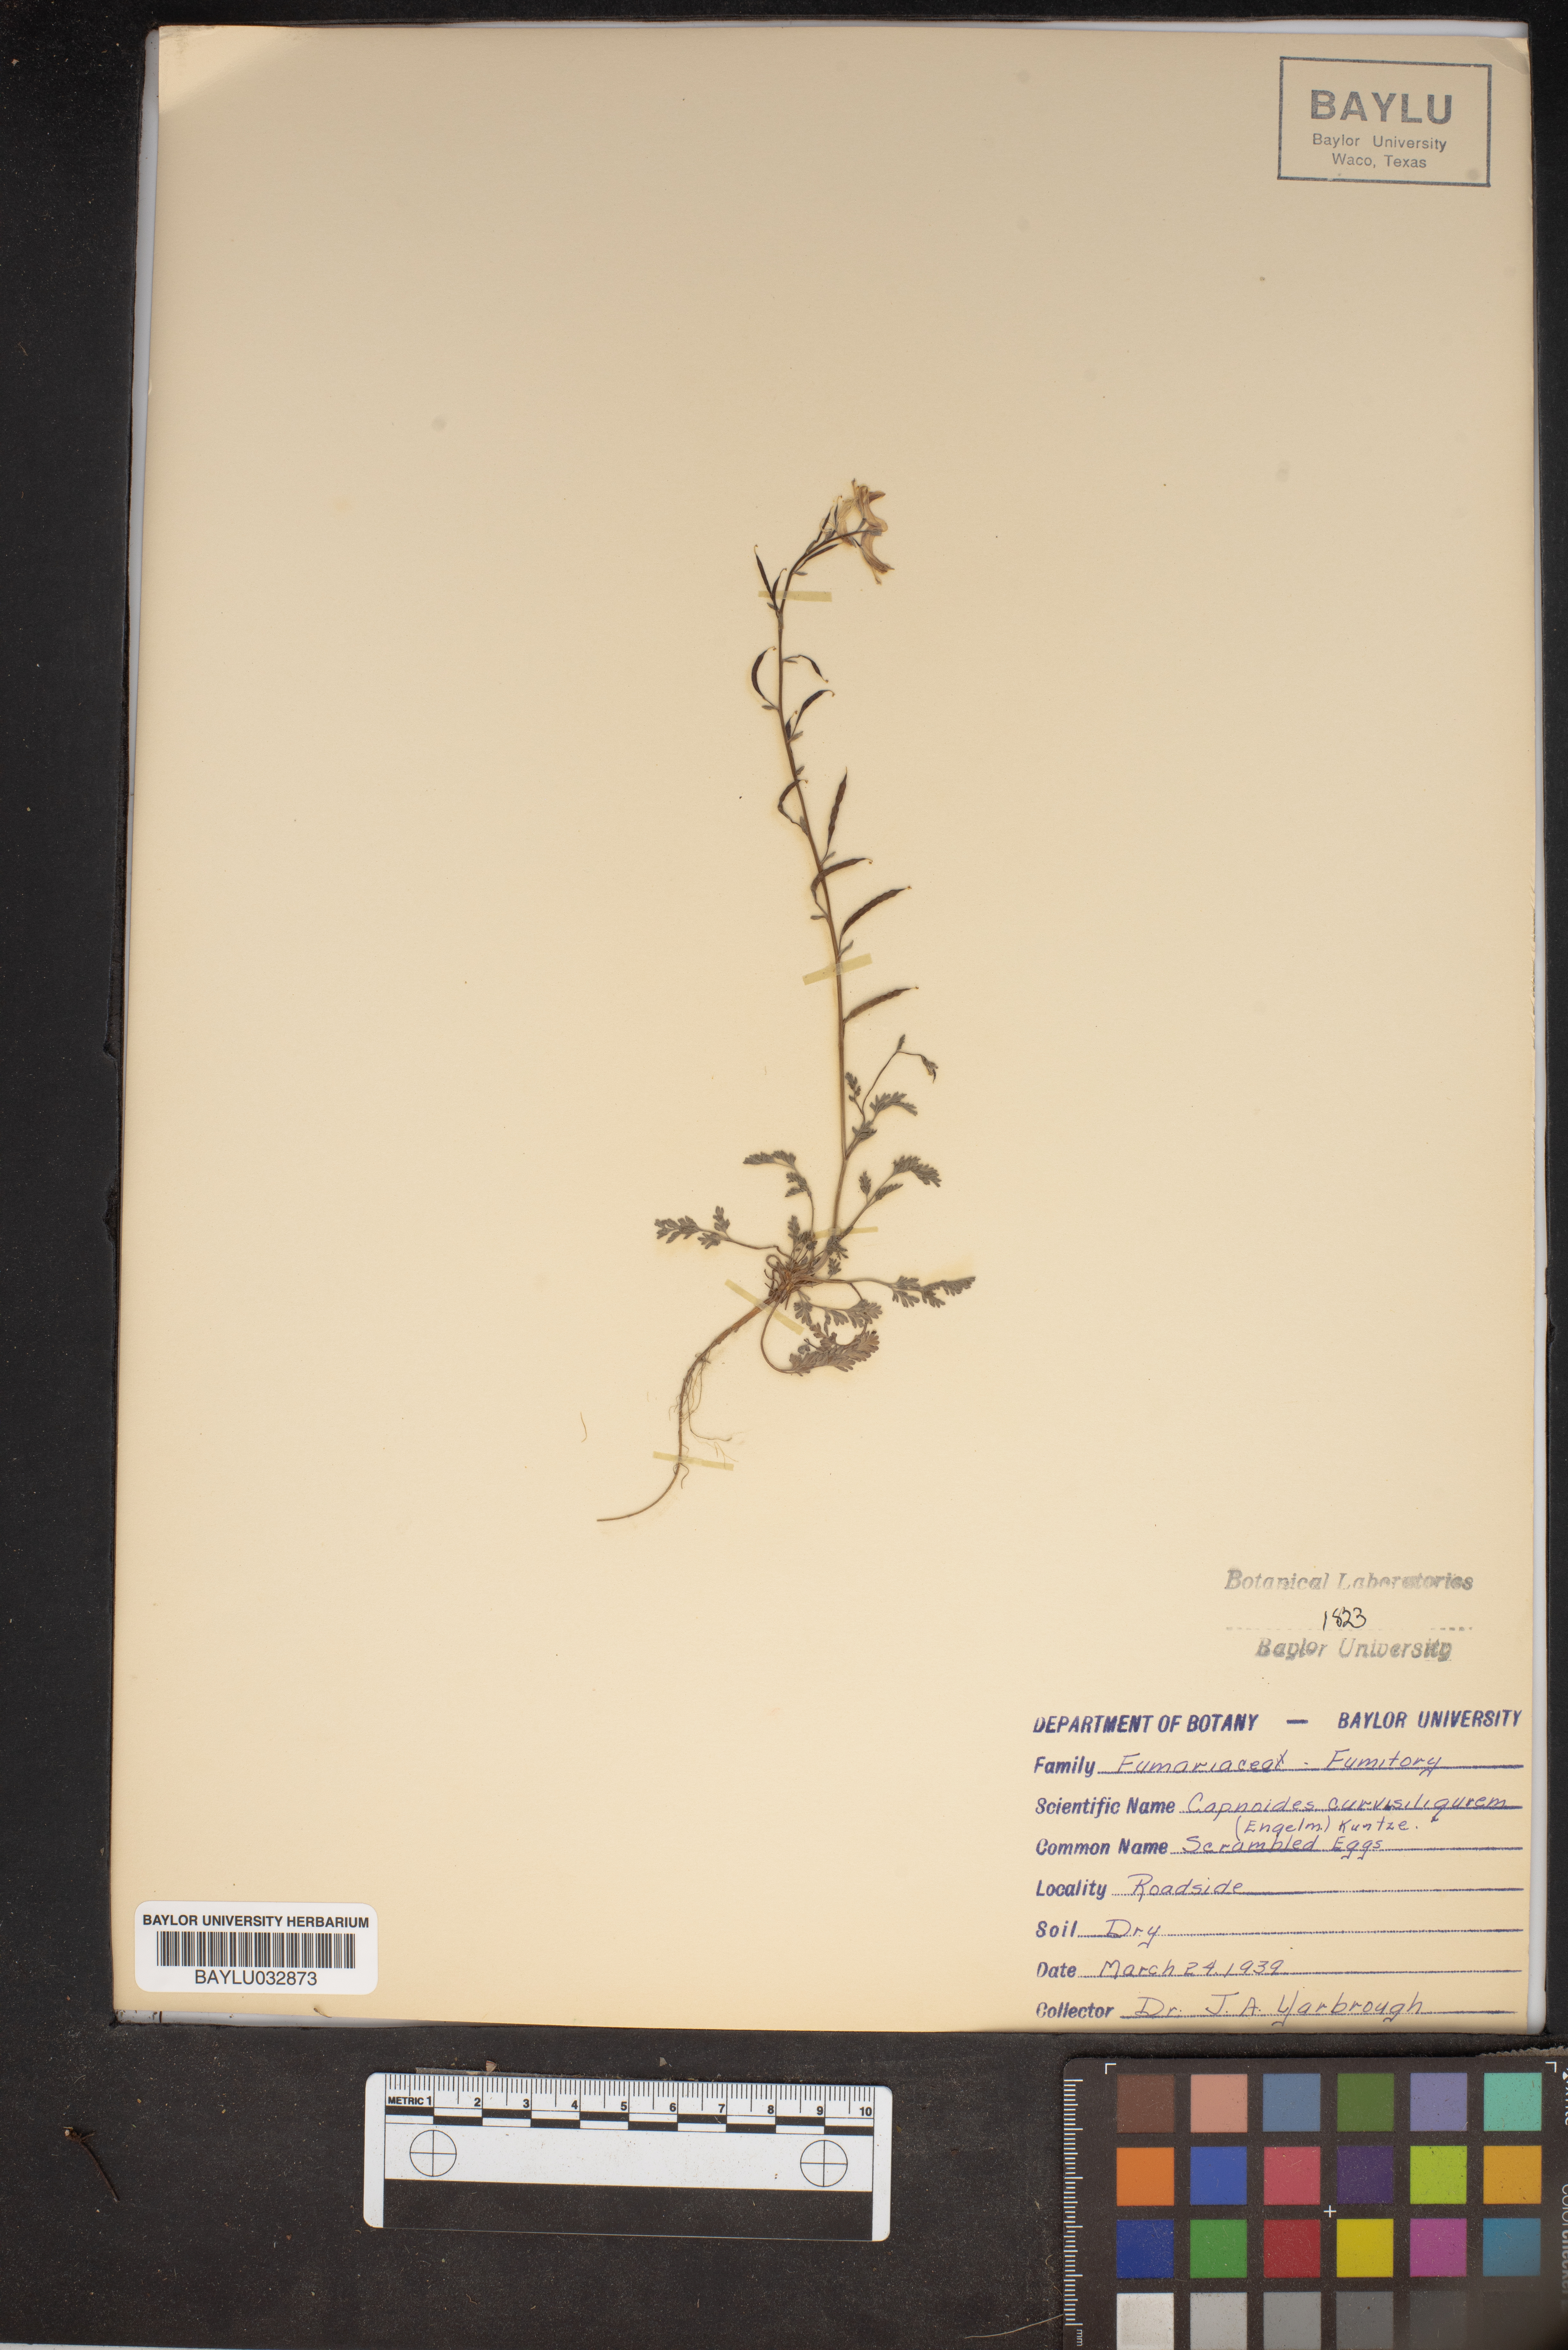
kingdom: Plantae
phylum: Tracheophyta
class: Magnoliopsida
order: Ranunculales
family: Papaveraceae
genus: Corydalis
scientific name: Corydalis curvisiliqua
